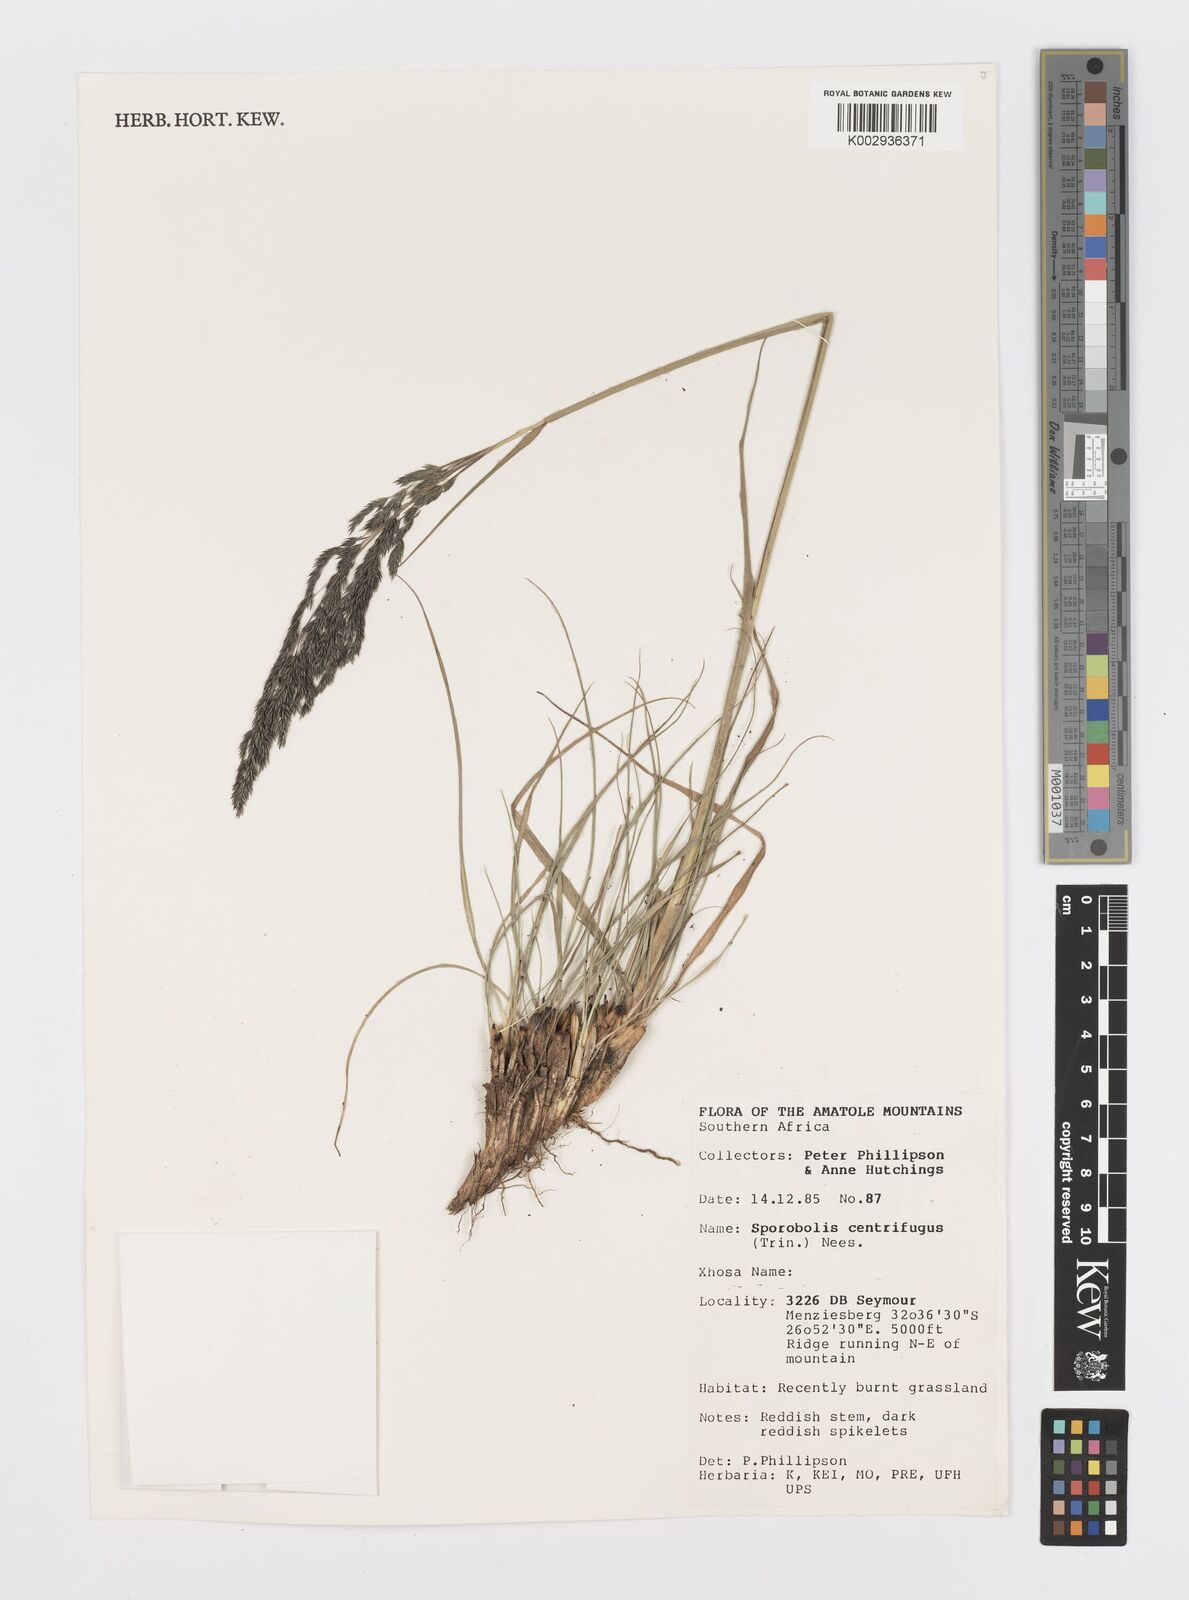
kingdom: Plantae
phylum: Tracheophyta
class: Liliopsida
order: Poales
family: Poaceae
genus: Sporobolus
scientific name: Sporobolus centrifugus
